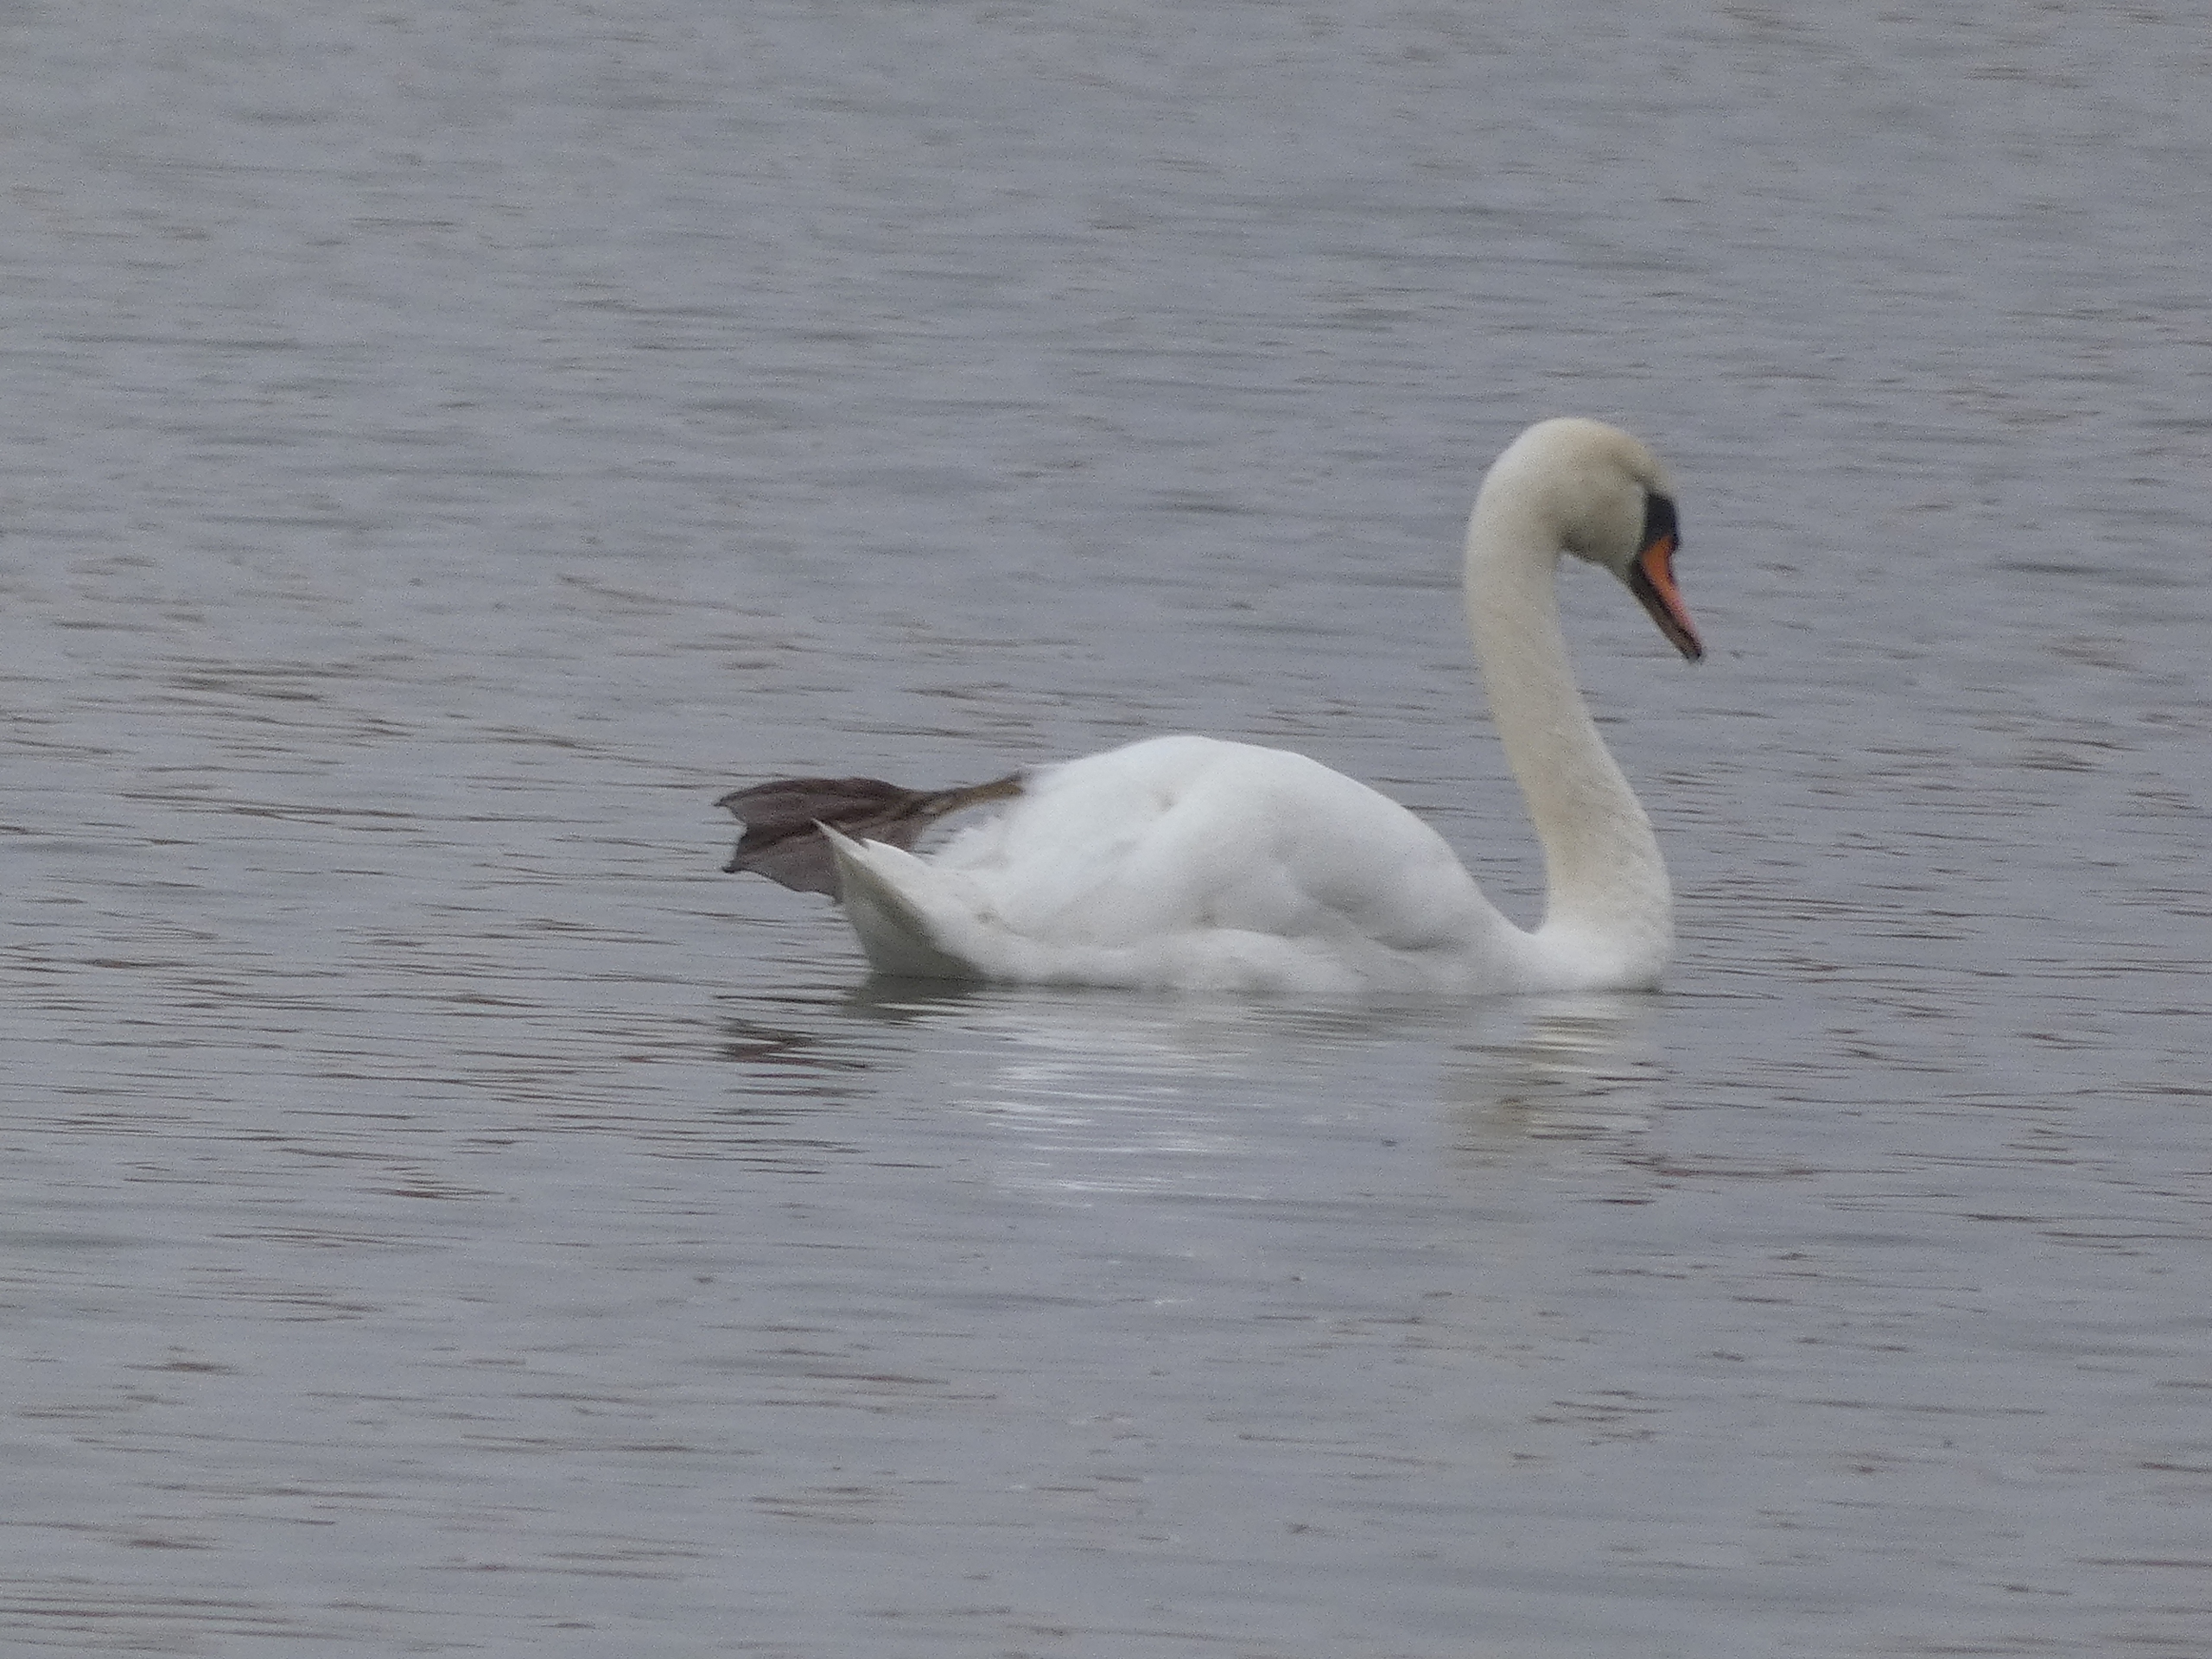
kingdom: Animalia
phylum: Chordata
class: Aves
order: Anseriformes
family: Anatidae
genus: Cygnus
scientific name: Cygnus olor
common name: Knopsvane
